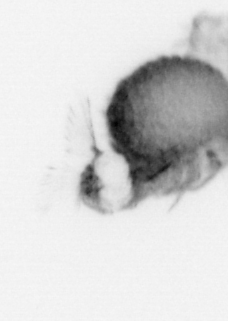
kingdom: Animalia
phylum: Annelida
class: Polychaeta
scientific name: Polychaeta
